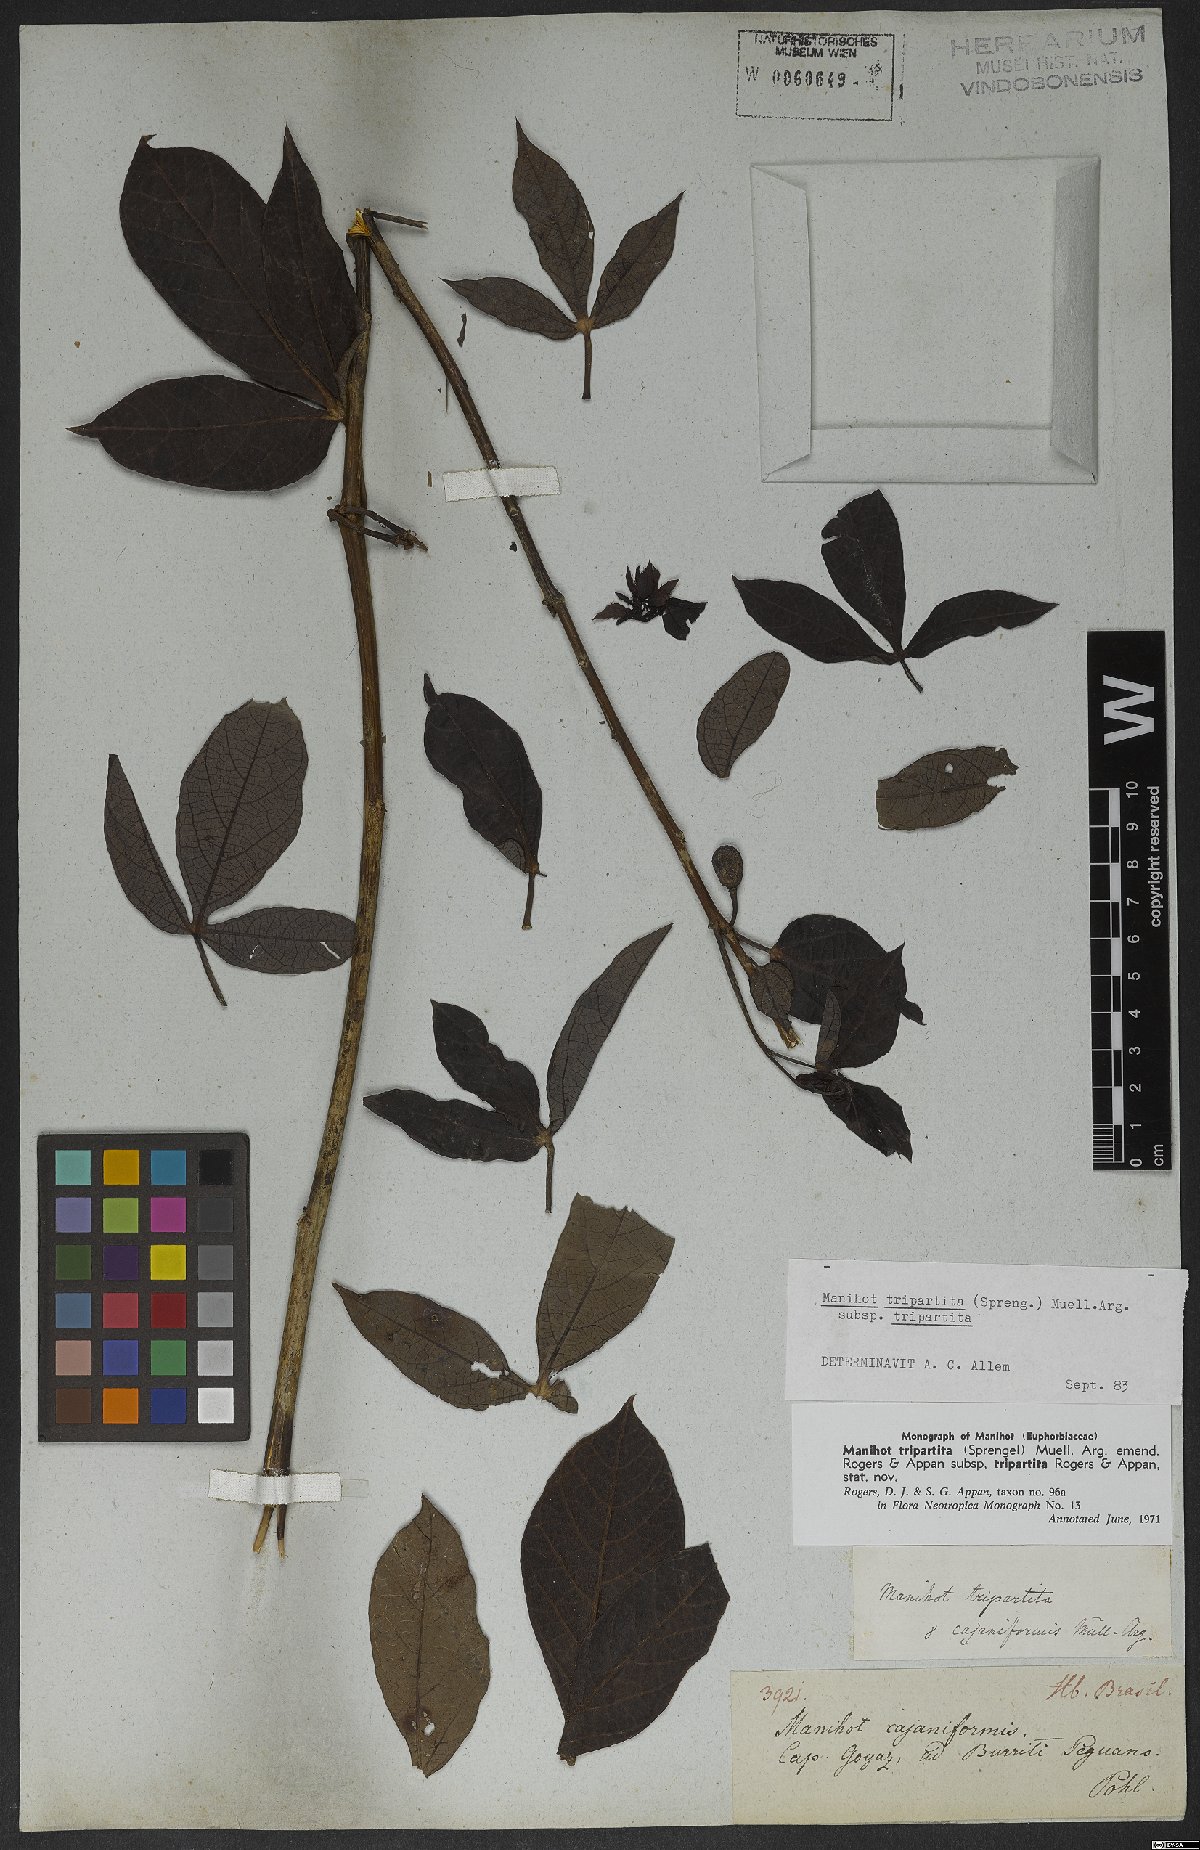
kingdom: Plantae
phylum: Tracheophyta
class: Magnoliopsida
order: Malpighiales
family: Euphorbiaceae
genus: Manihot
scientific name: Manihot tripartita
